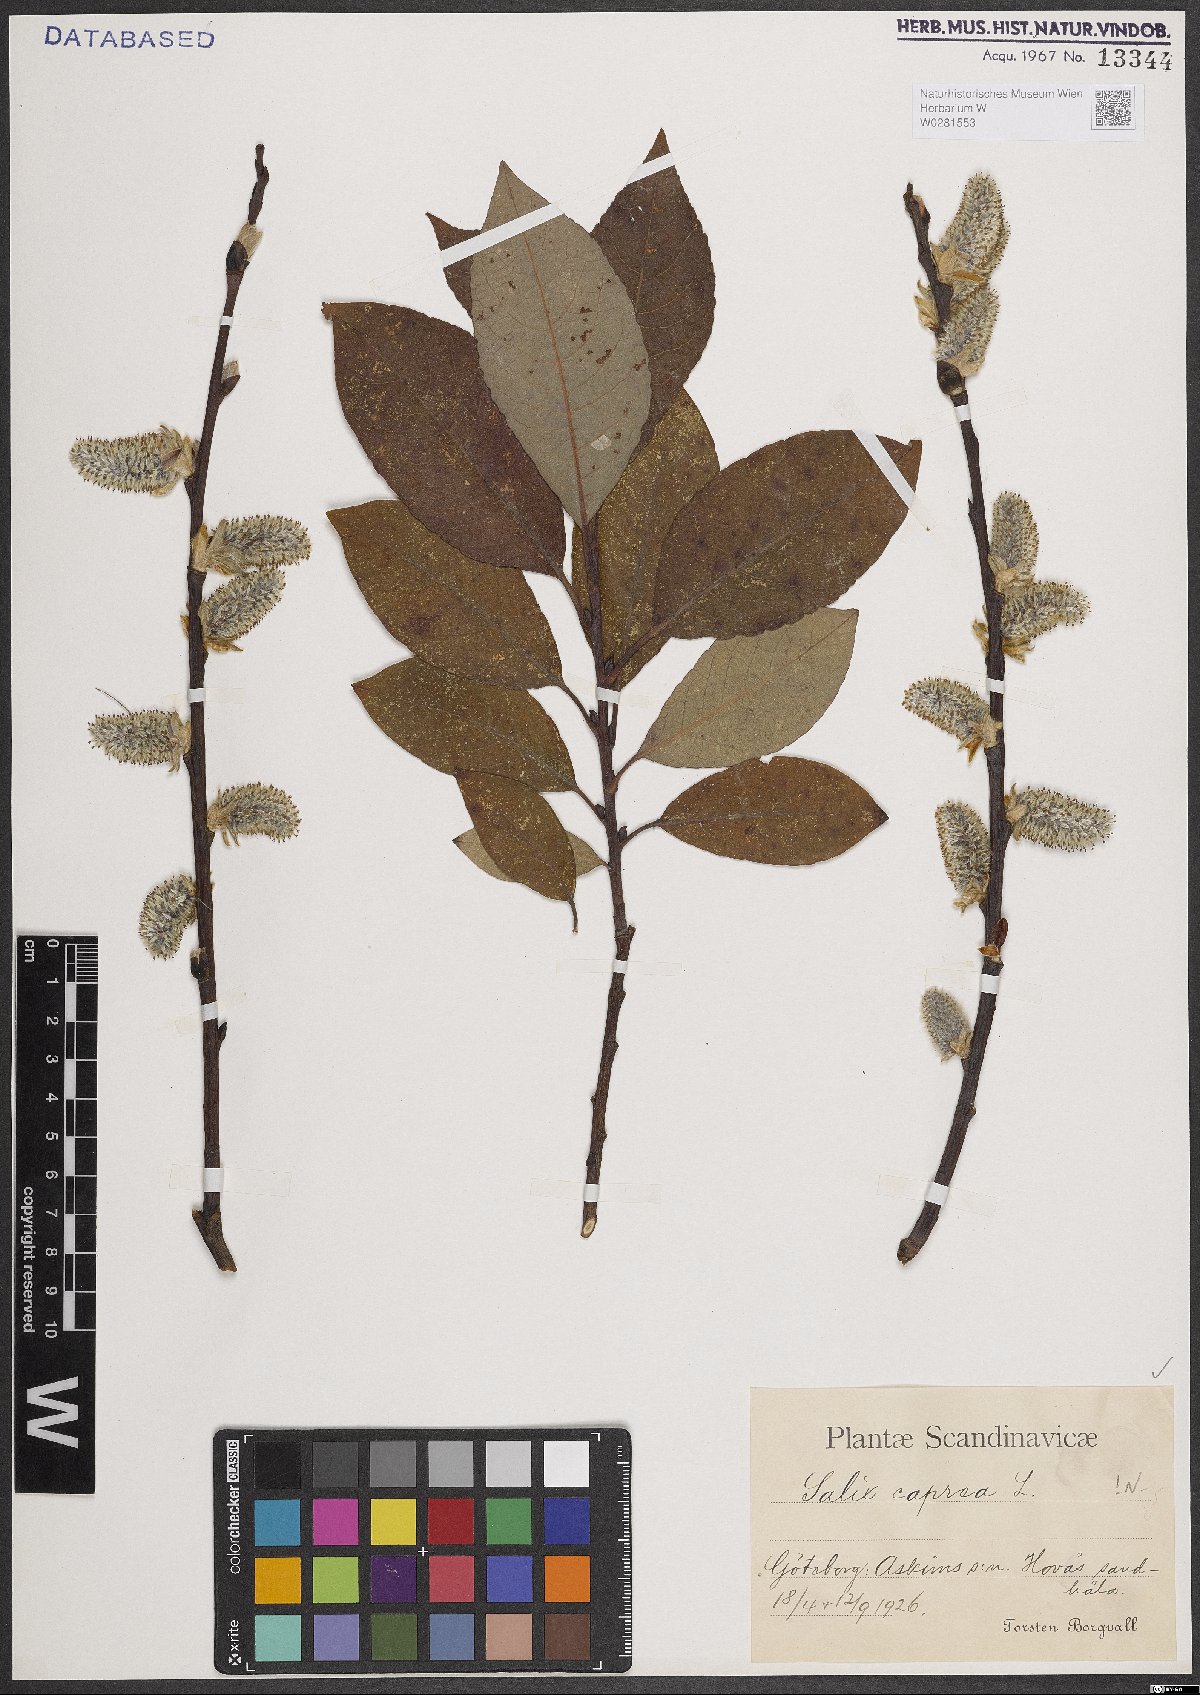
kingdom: Plantae
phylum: Tracheophyta
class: Magnoliopsida
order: Malpighiales
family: Salicaceae
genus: Salix
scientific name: Salix caprea
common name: Goat willow
